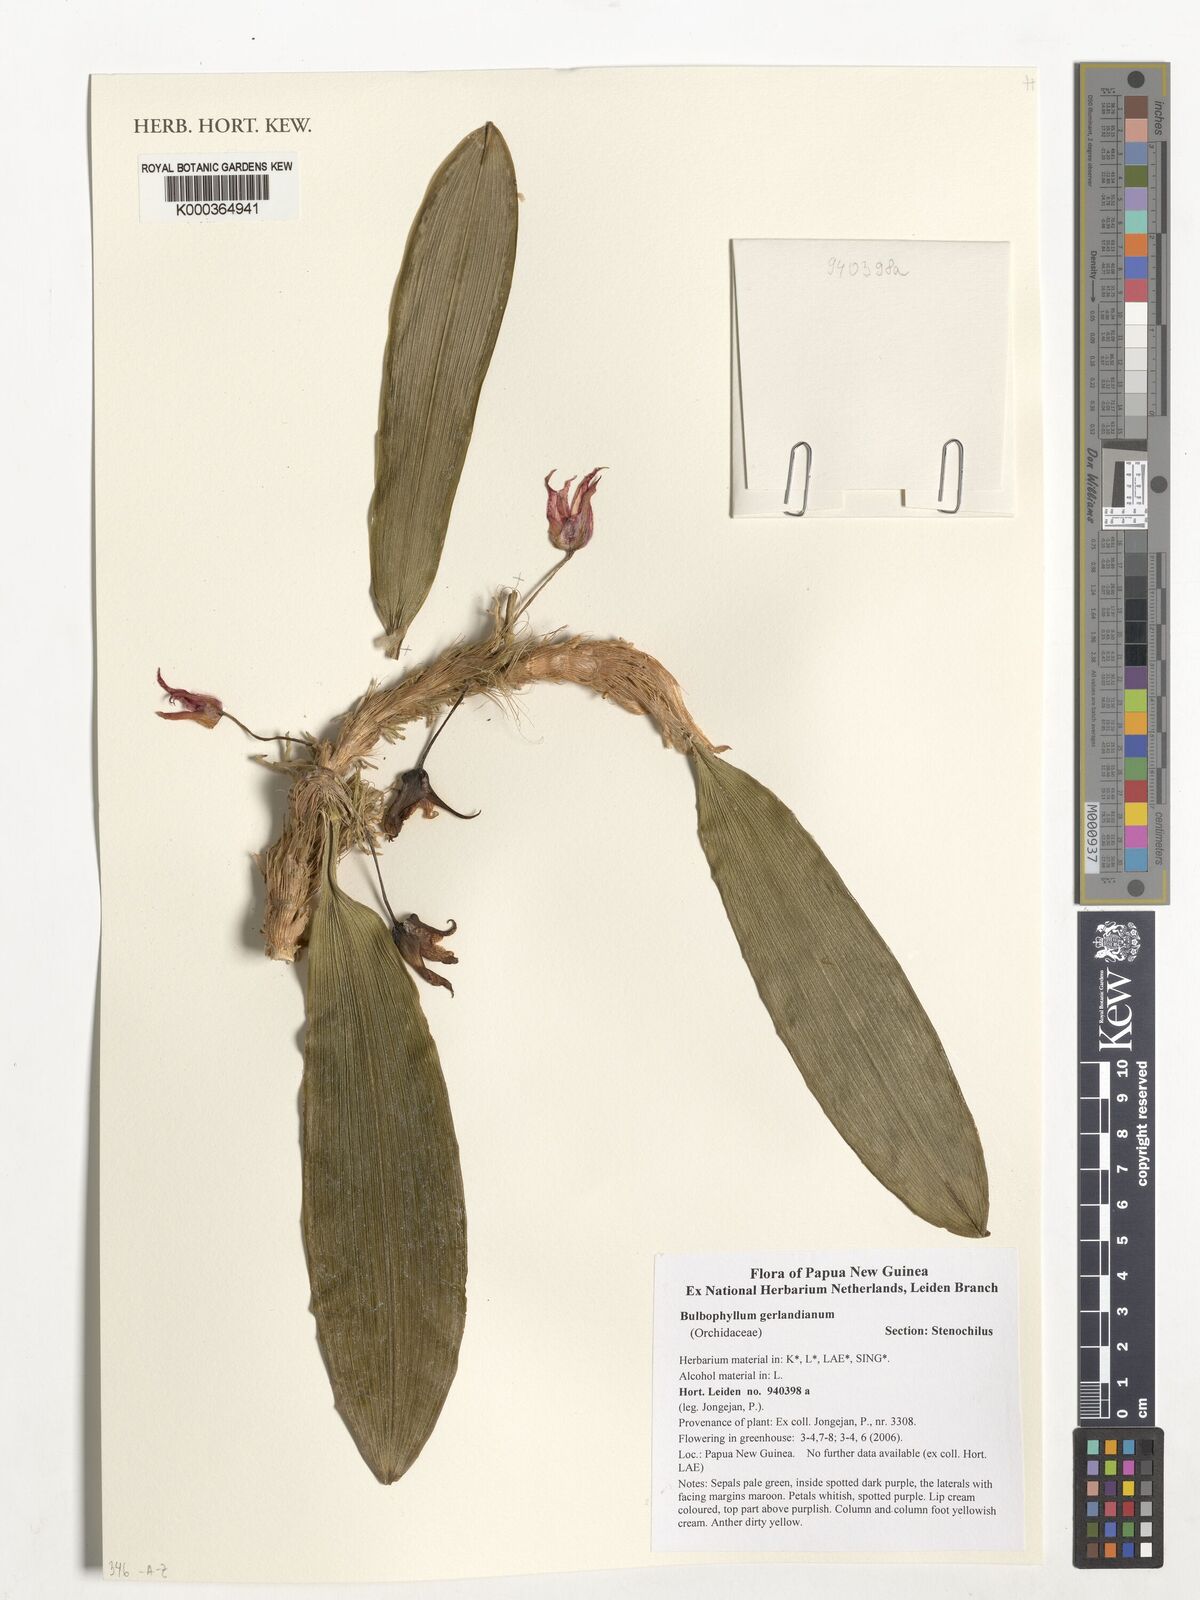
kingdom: Plantae
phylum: Tracheophyta
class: Liliopsida
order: Asparagales
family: Orchidaceae
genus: Bulbophyllum
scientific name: Bulbophyllum gerlandianum
